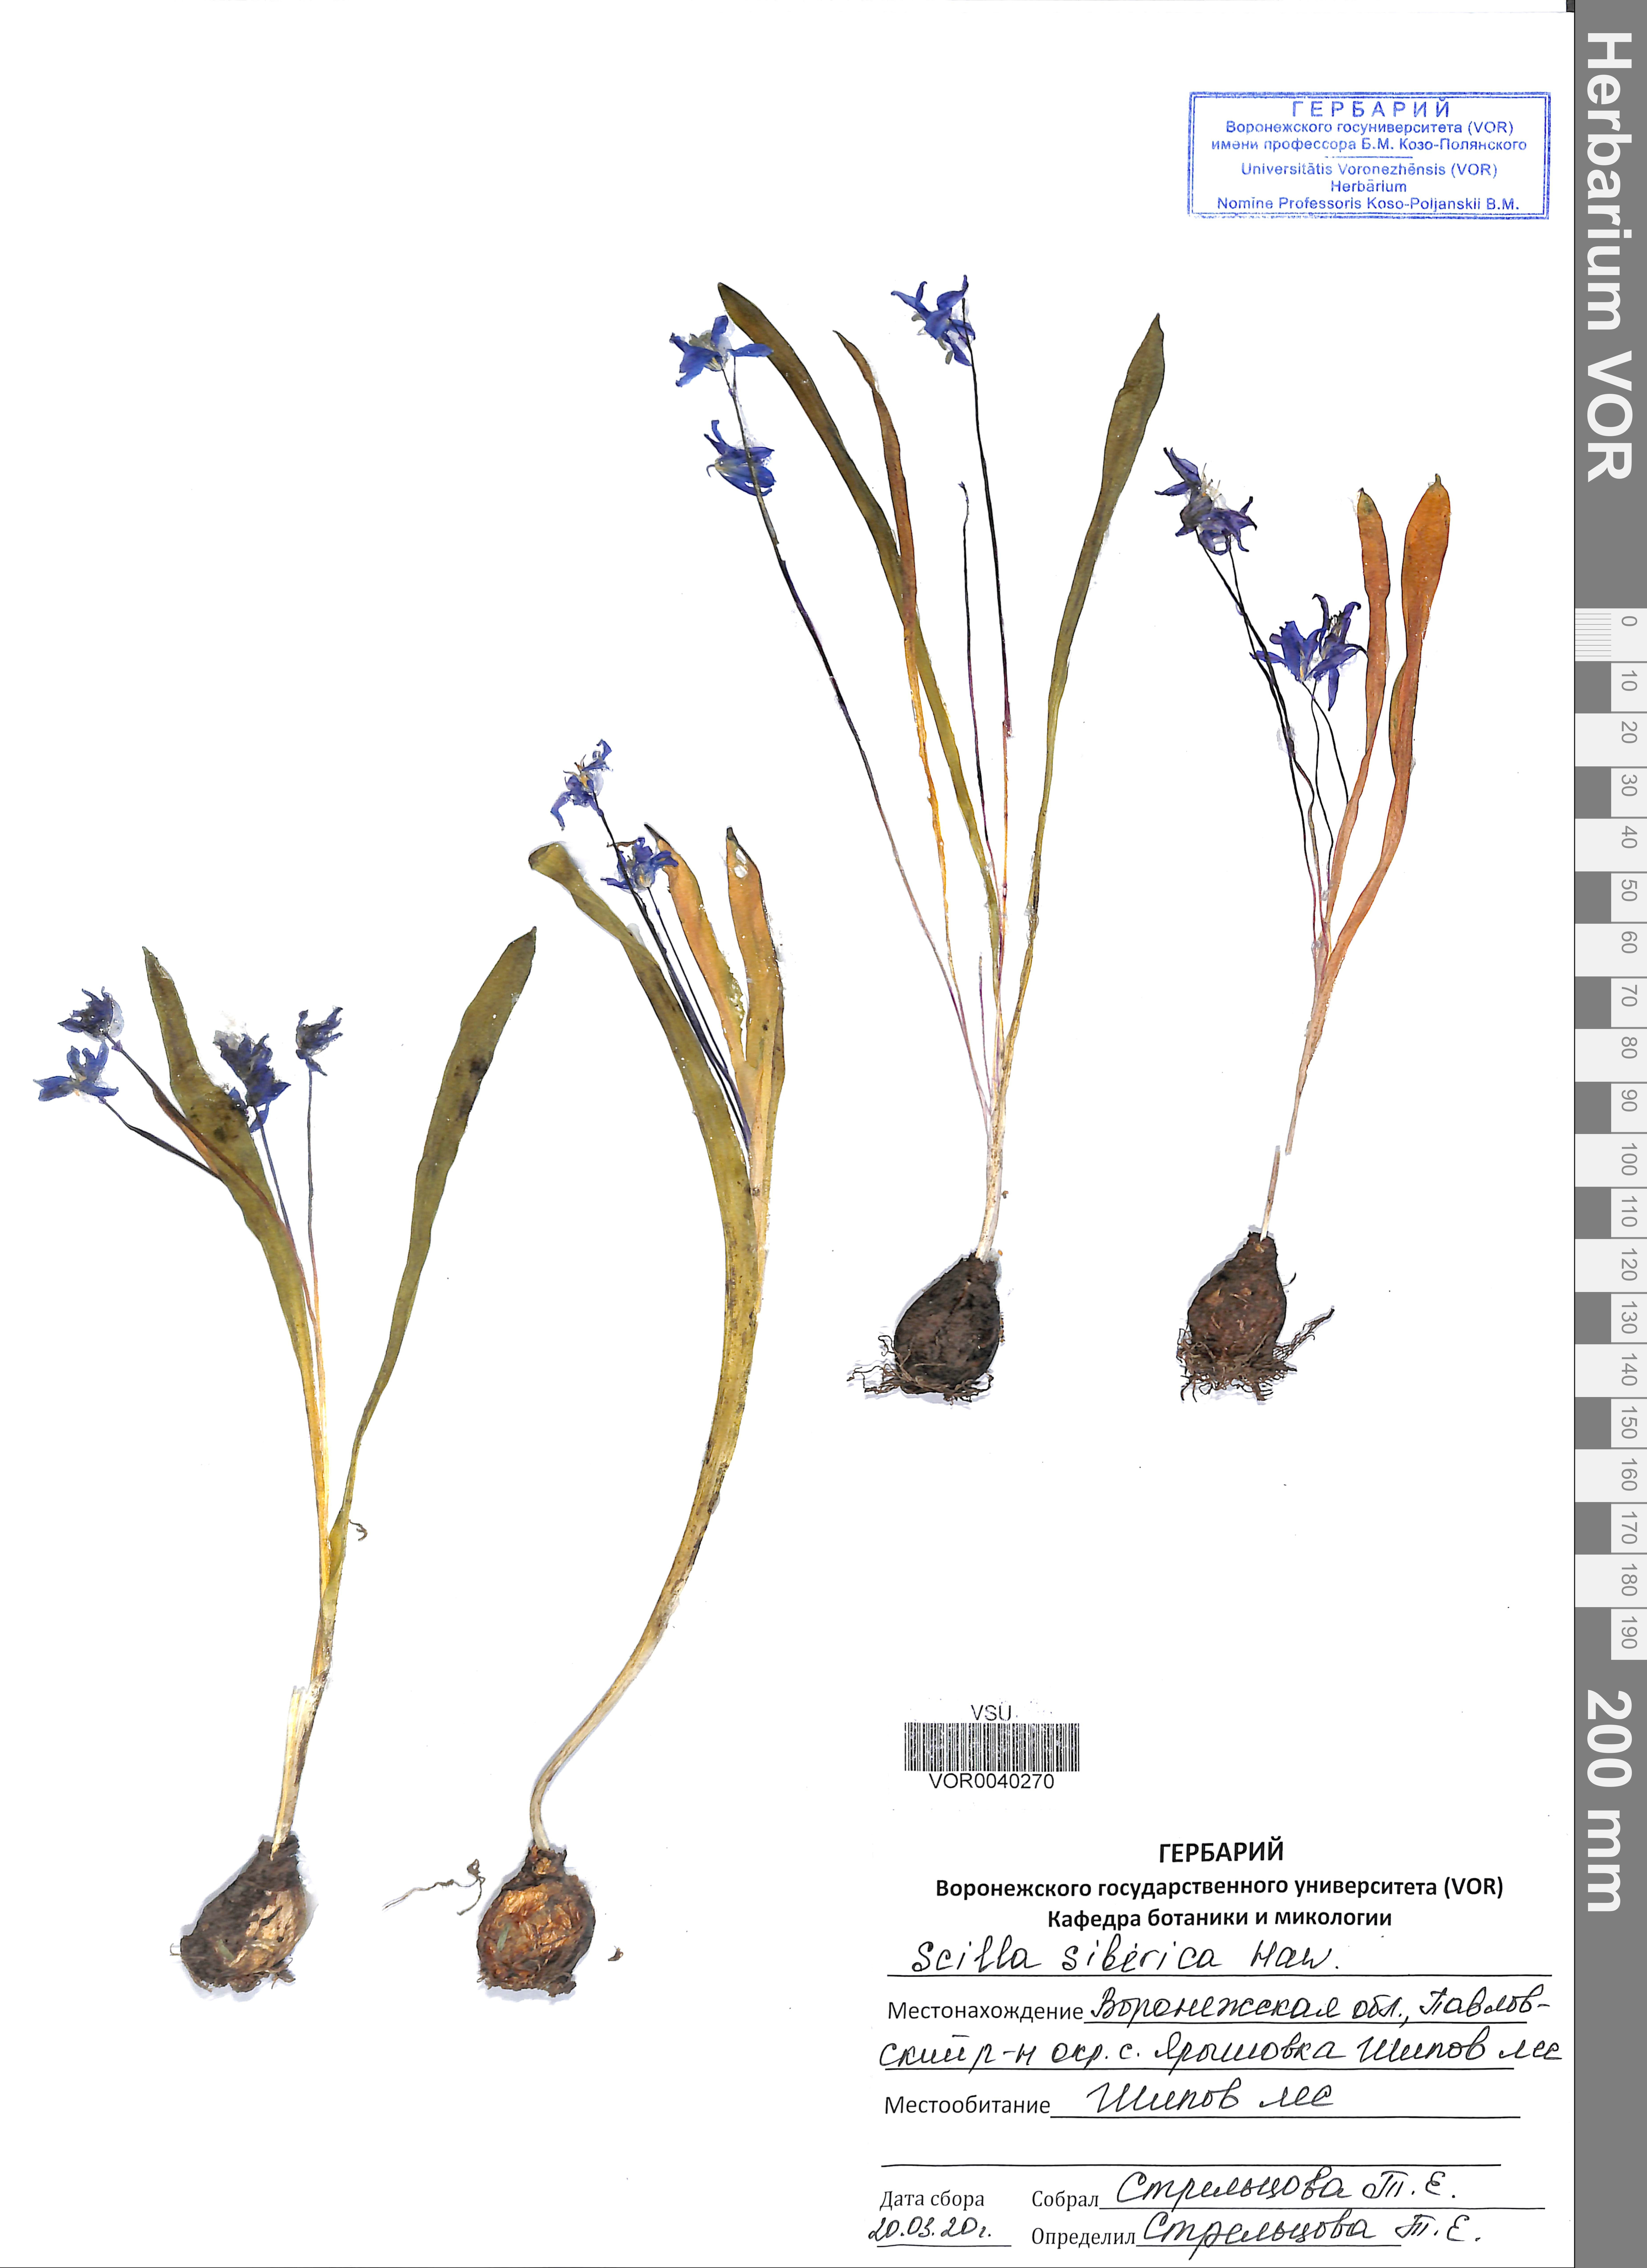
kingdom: Plantae
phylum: Tracheophyta
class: Liliopsida
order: Asparagales
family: Asparagaceae
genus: Scilla
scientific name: Scilla siberica
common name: Siberian squill
